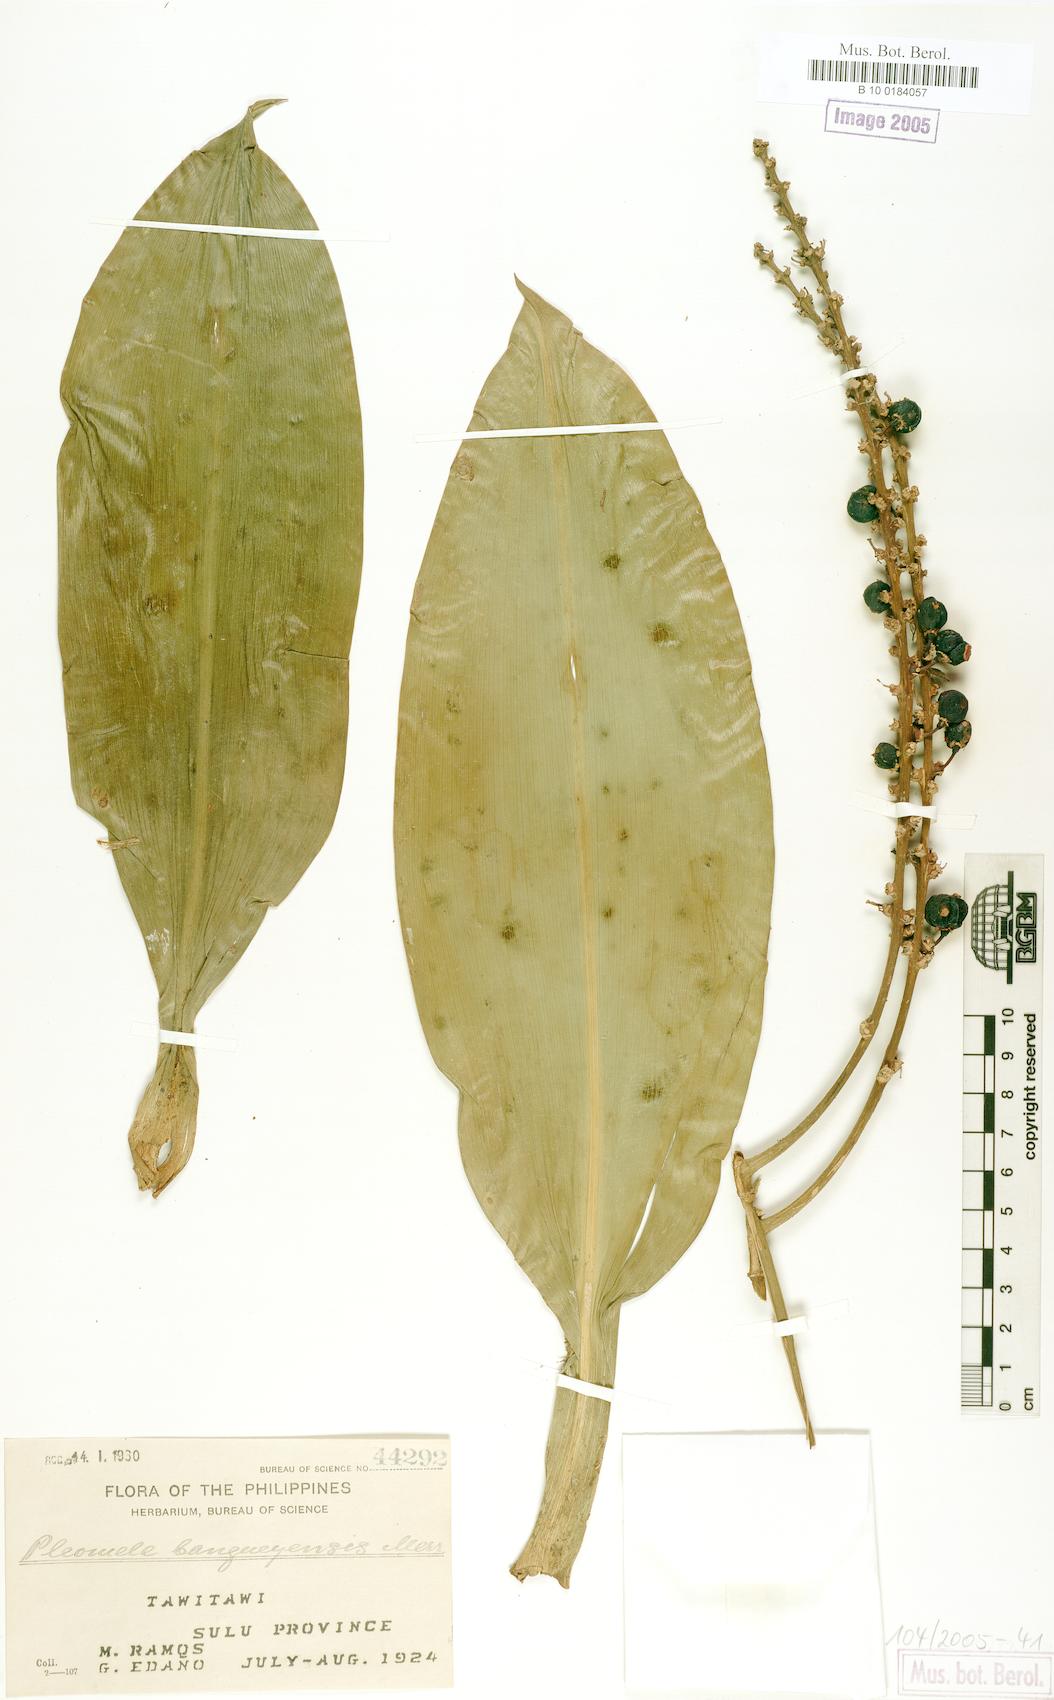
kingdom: Plantae
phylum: Tracheophyta
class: Liliopsida
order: Asparagales
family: Asparagaceae
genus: Dracaena
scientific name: Dracaena Pleomele bangueyensis
